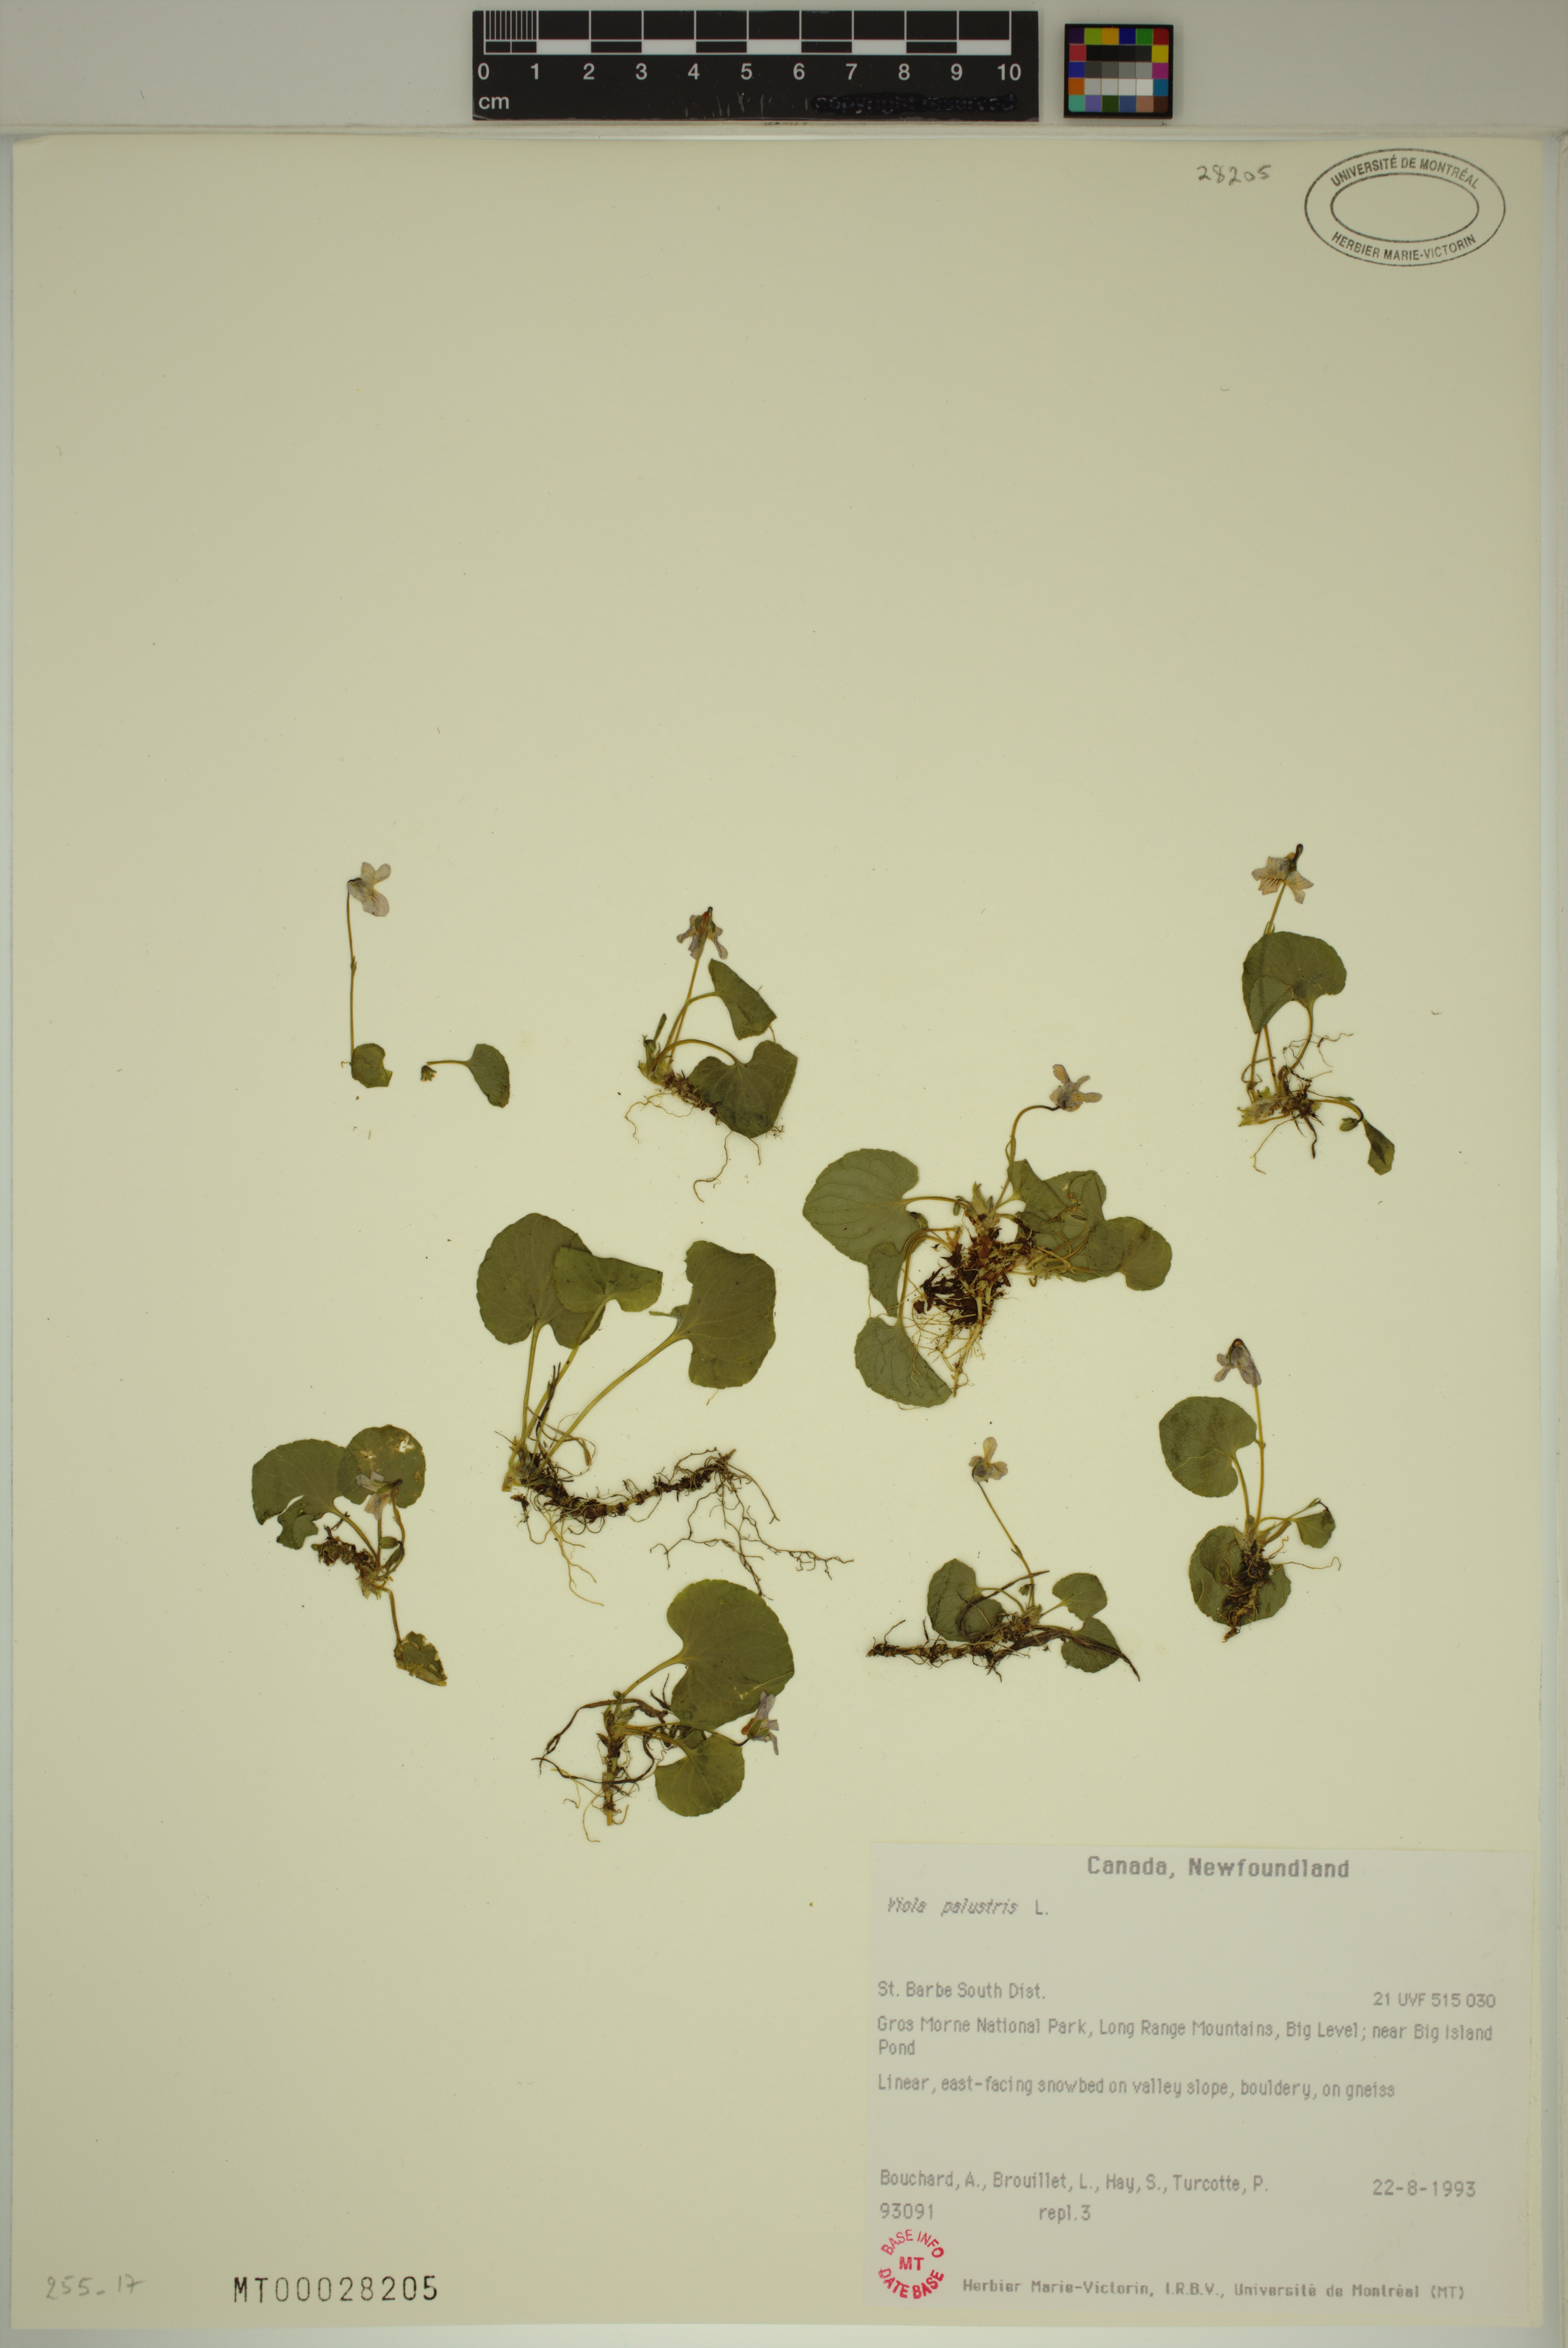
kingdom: Plantae
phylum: Tracheophyta
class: Magnoliopsida
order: Malpighiales
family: Violaceae
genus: Viola
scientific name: Viola palustris
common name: Marsh violet
